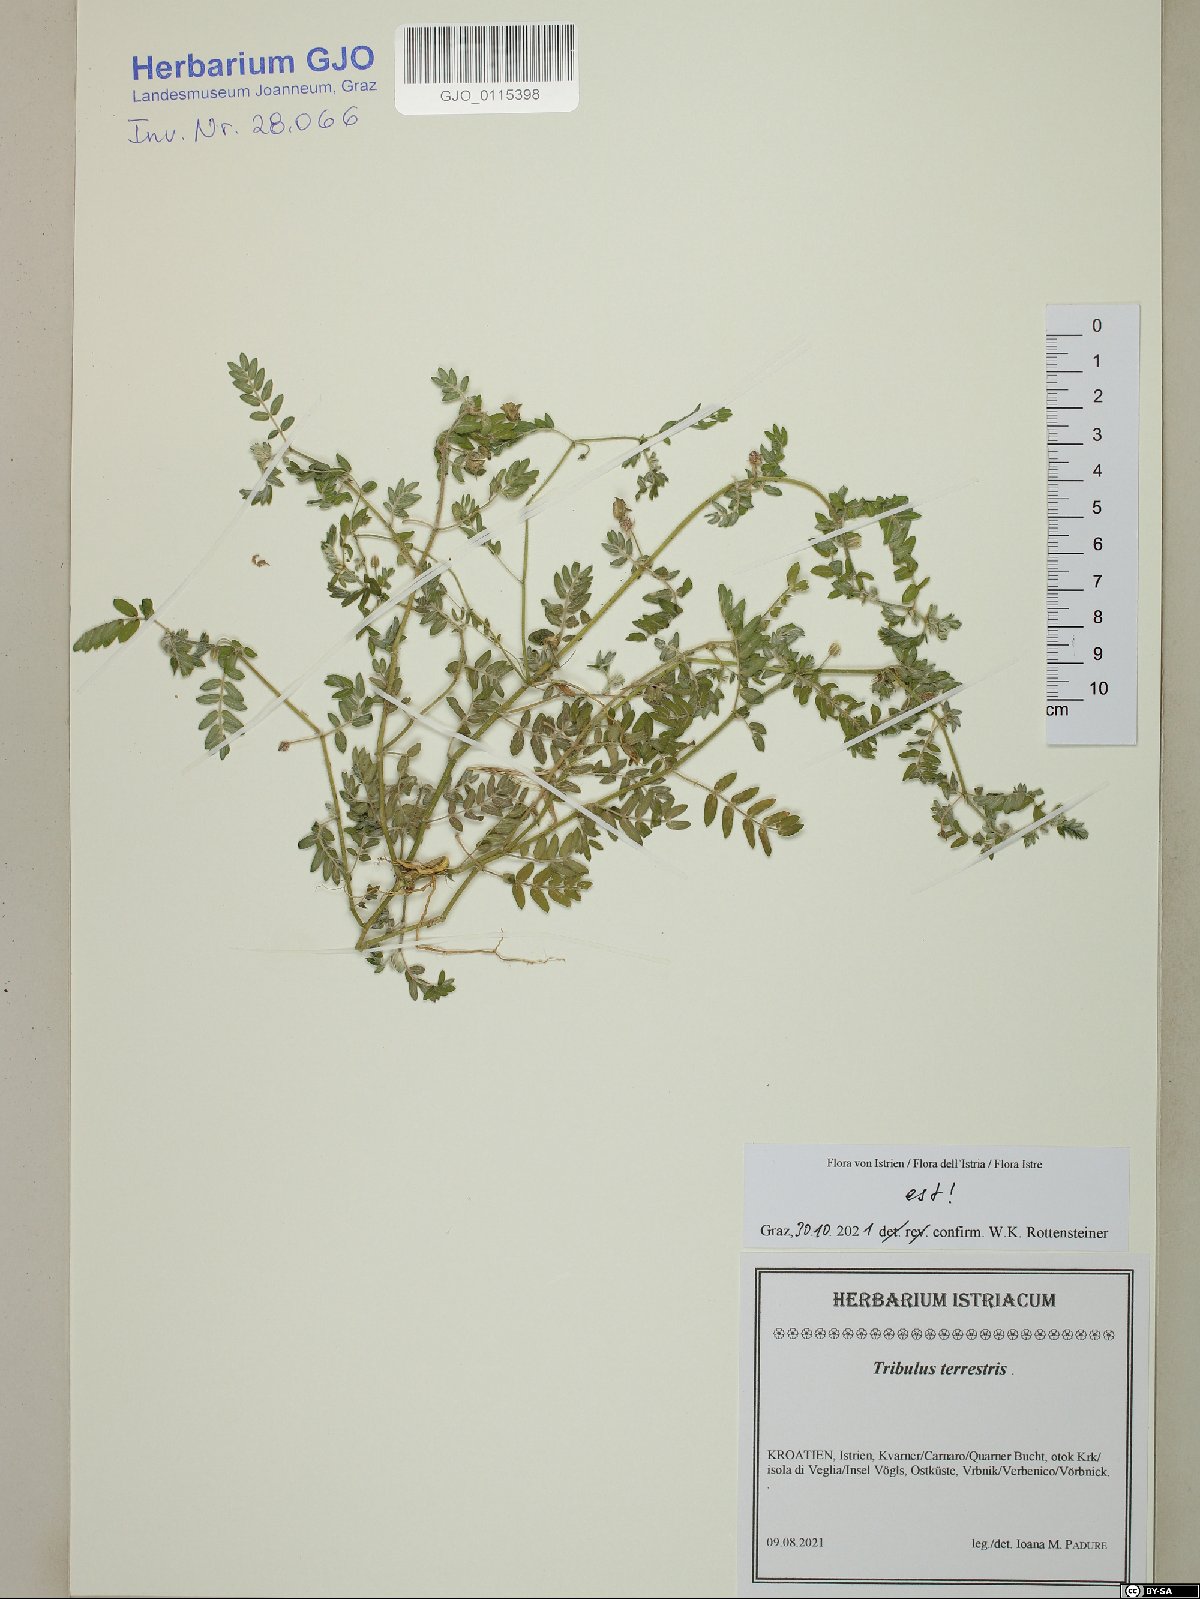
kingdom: Plantae
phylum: Tracheophyta
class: Magnoliopsida
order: Zygophyllales
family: Zygophyllaceae
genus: Tribulus
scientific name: Tribulus terrestris
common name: Puncturevine
